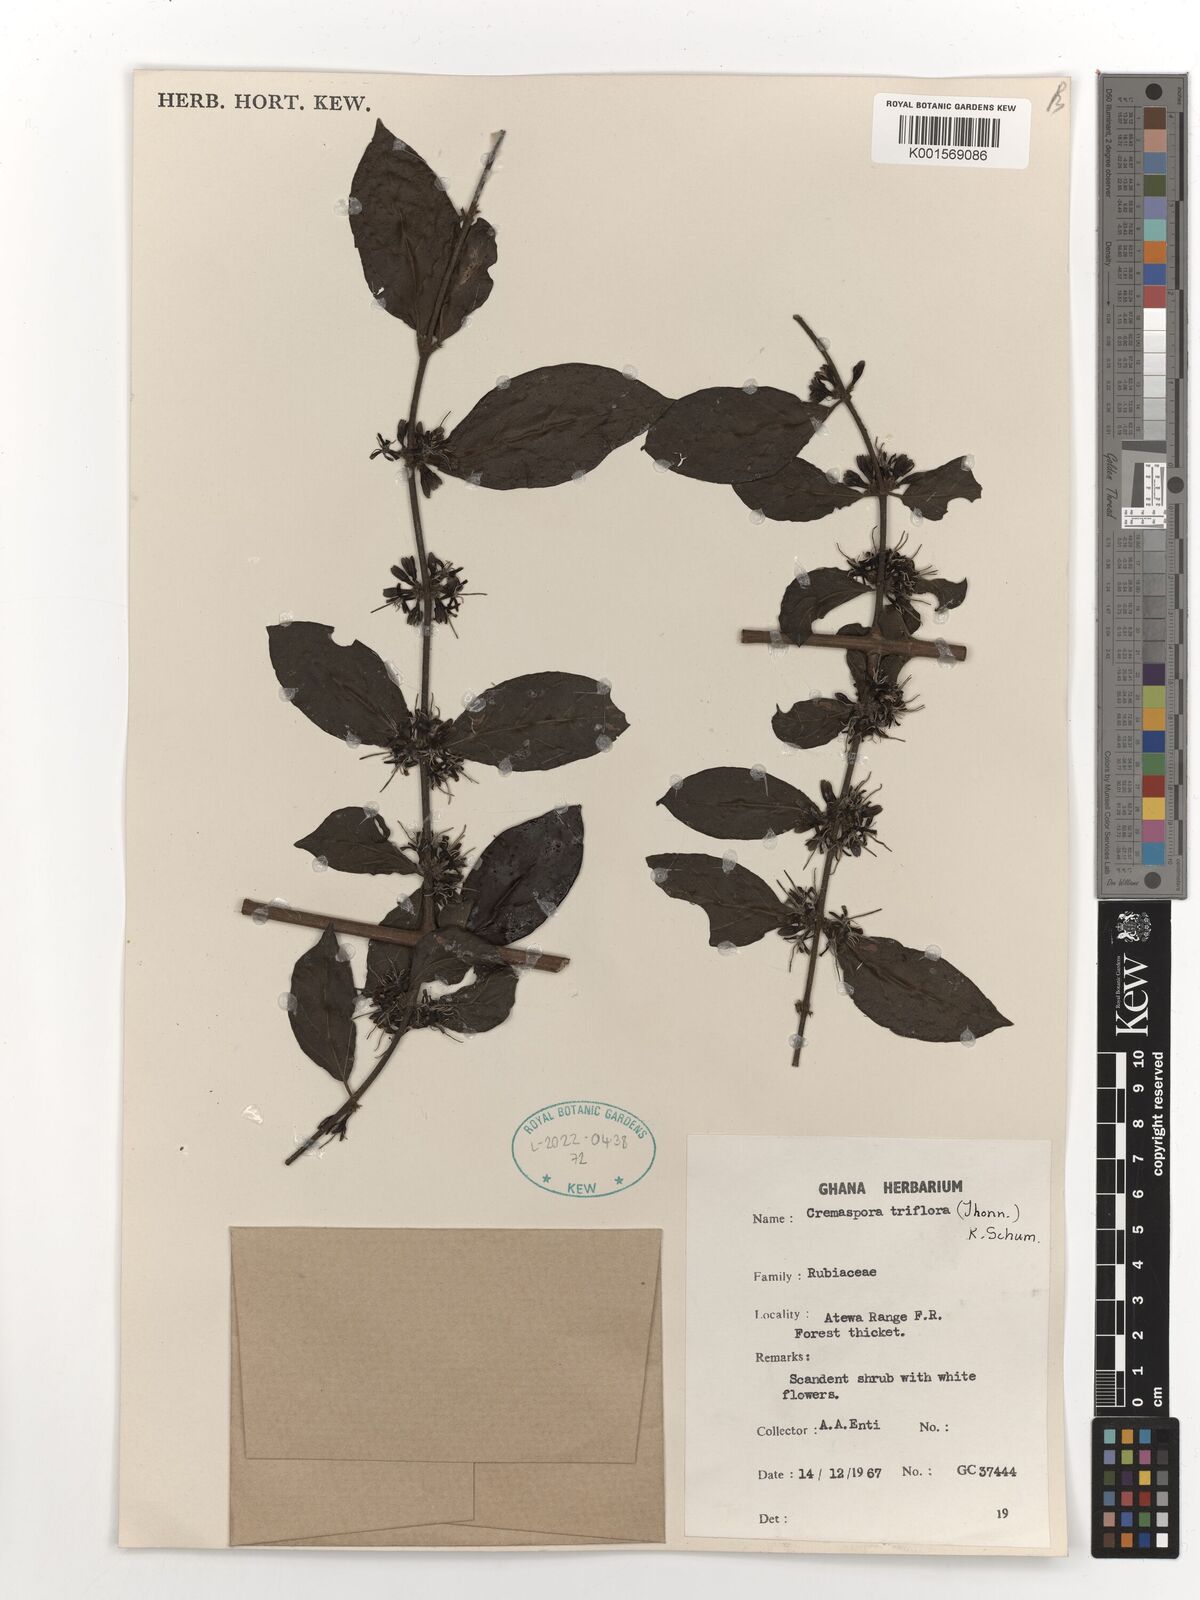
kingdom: Plantae
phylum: Tracheophyta
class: Magnoliopsida
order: Gentianales
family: Rubiaceae
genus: Cremaspora
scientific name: Cremaspora triflora
